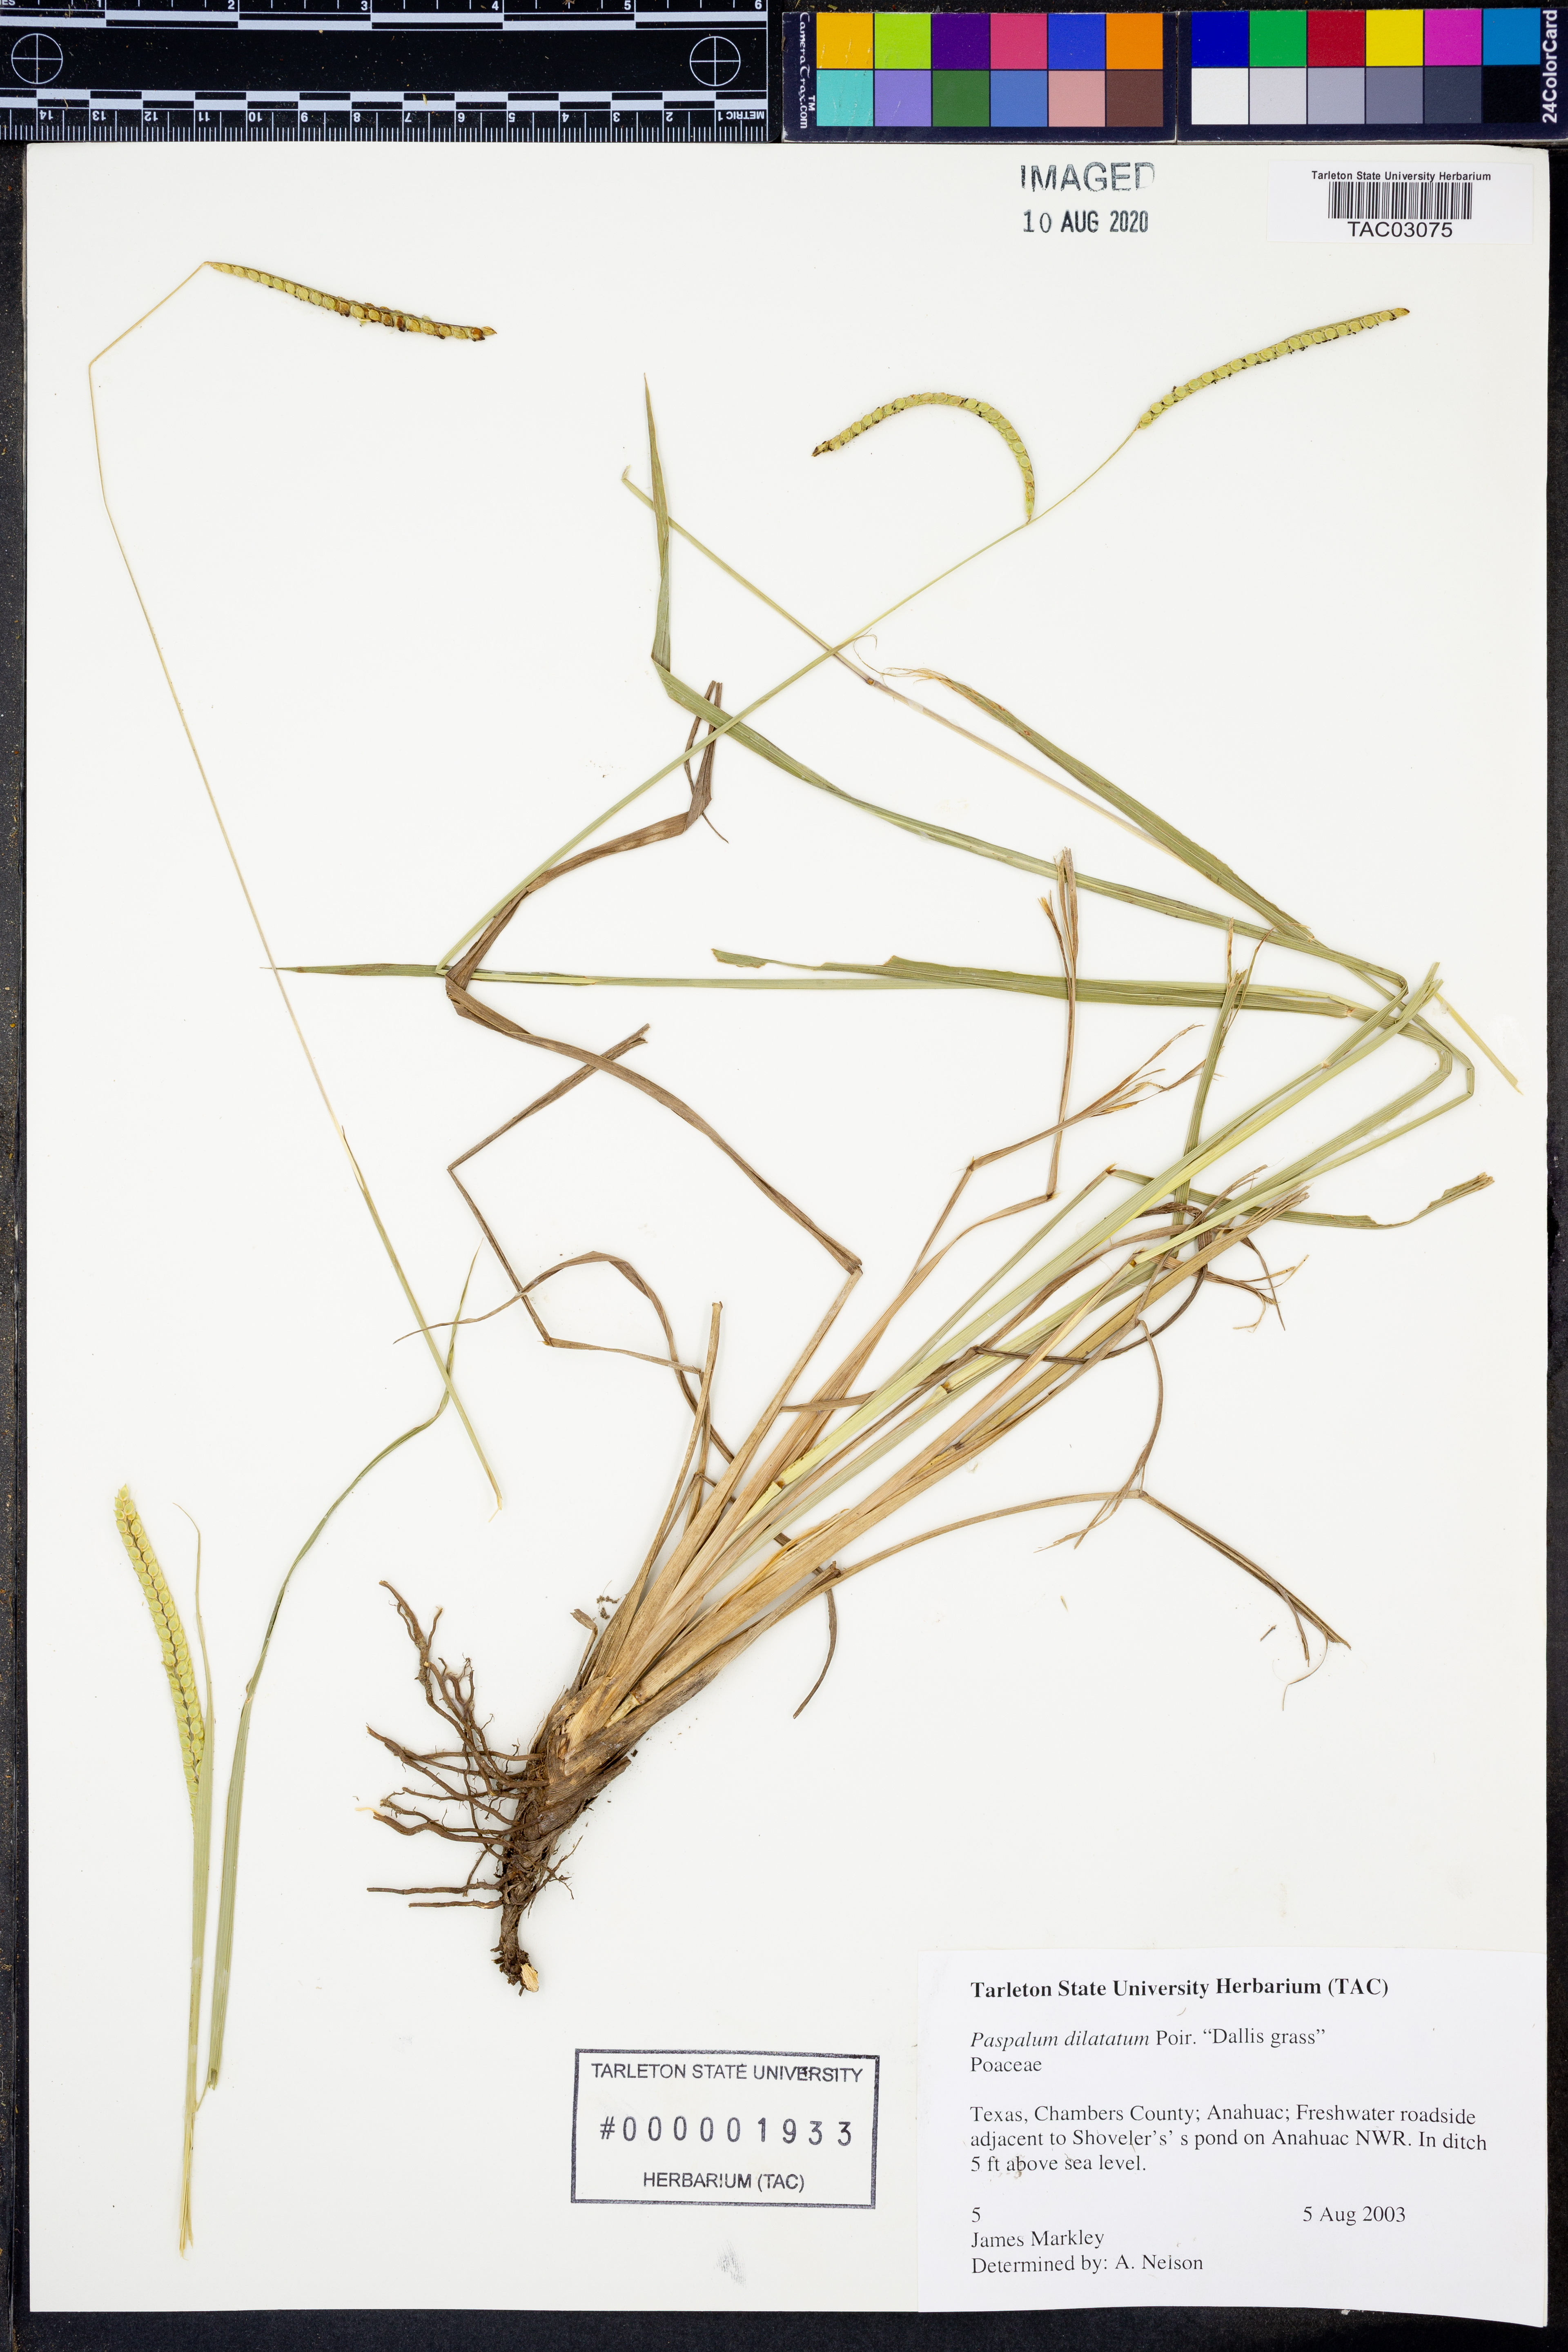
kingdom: Plantae
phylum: Tracheophyta
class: Liliopsida
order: Poales
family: Poaceae
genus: Paspalum
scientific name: Paspalum dilatatum
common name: Dallisgrass
